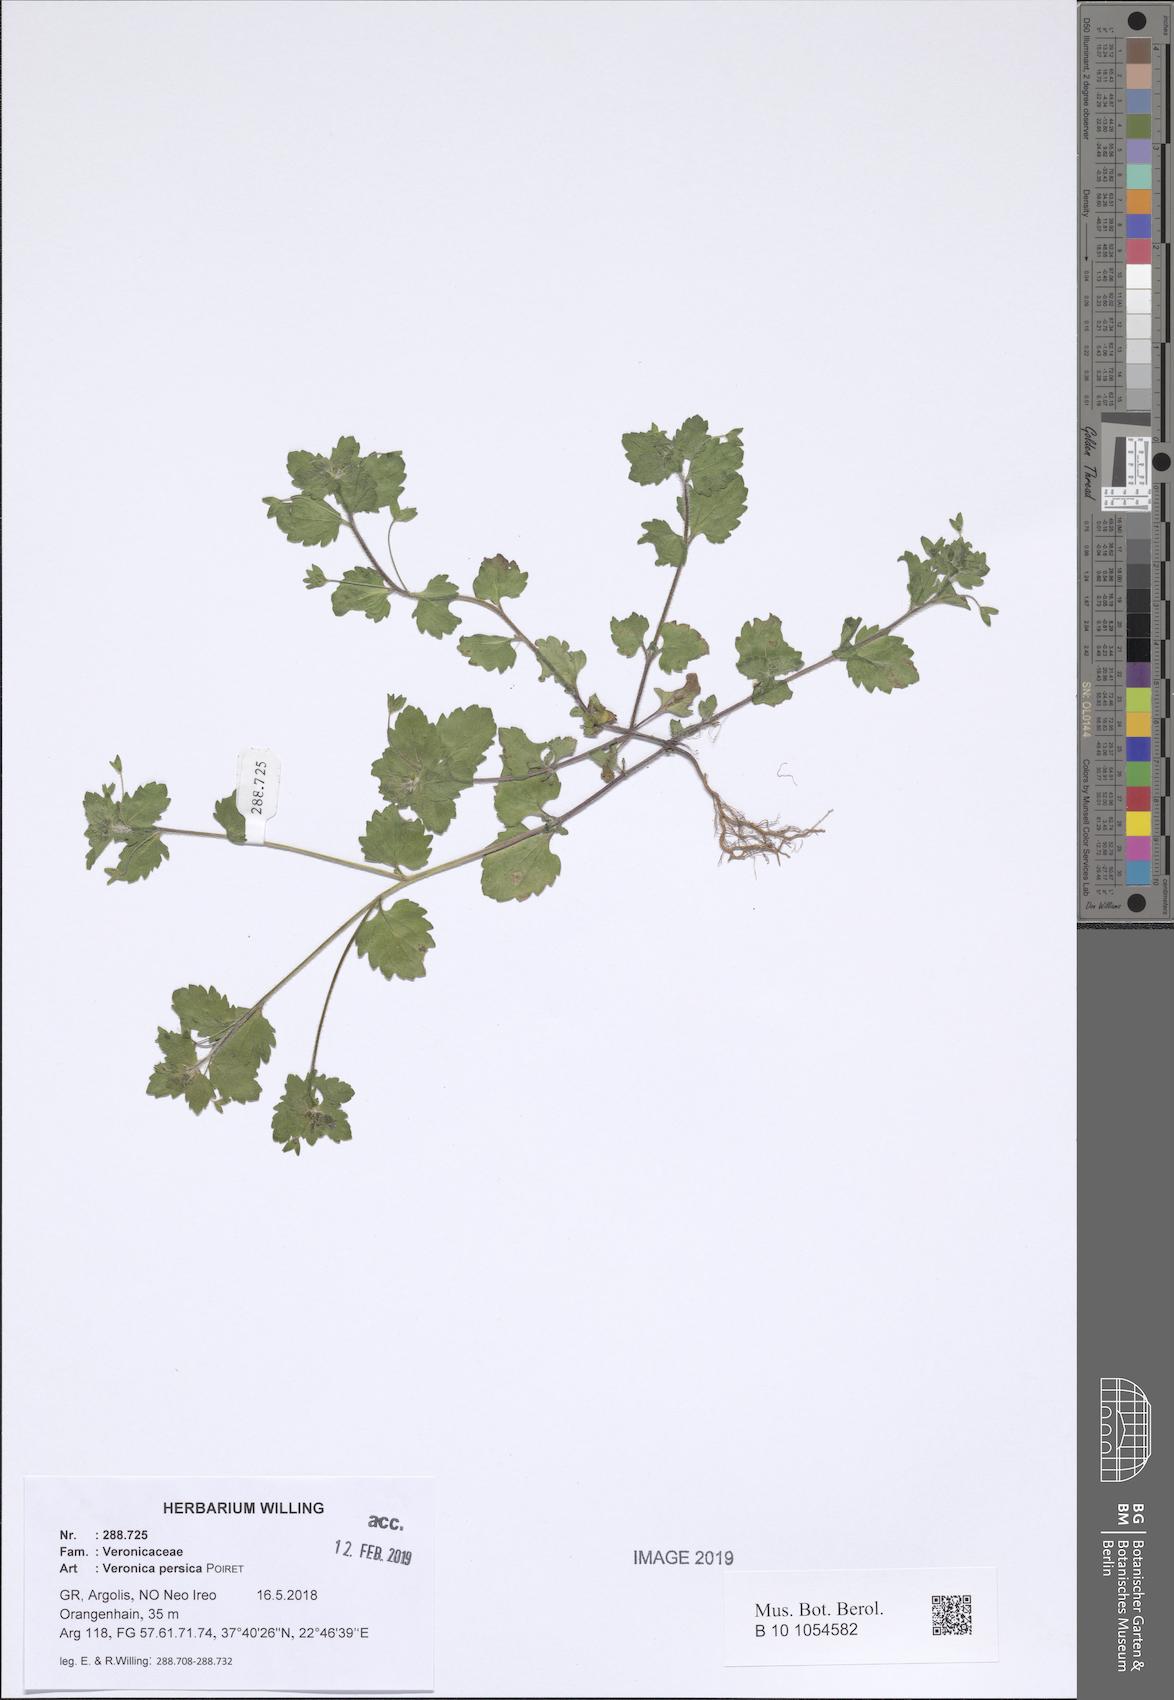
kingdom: Plantae
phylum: Tracheophyta
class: Magnoliopsida
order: Lamiales
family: Plantaginaceae
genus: Veronica
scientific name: Veronica persica
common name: Common field-speedwell
